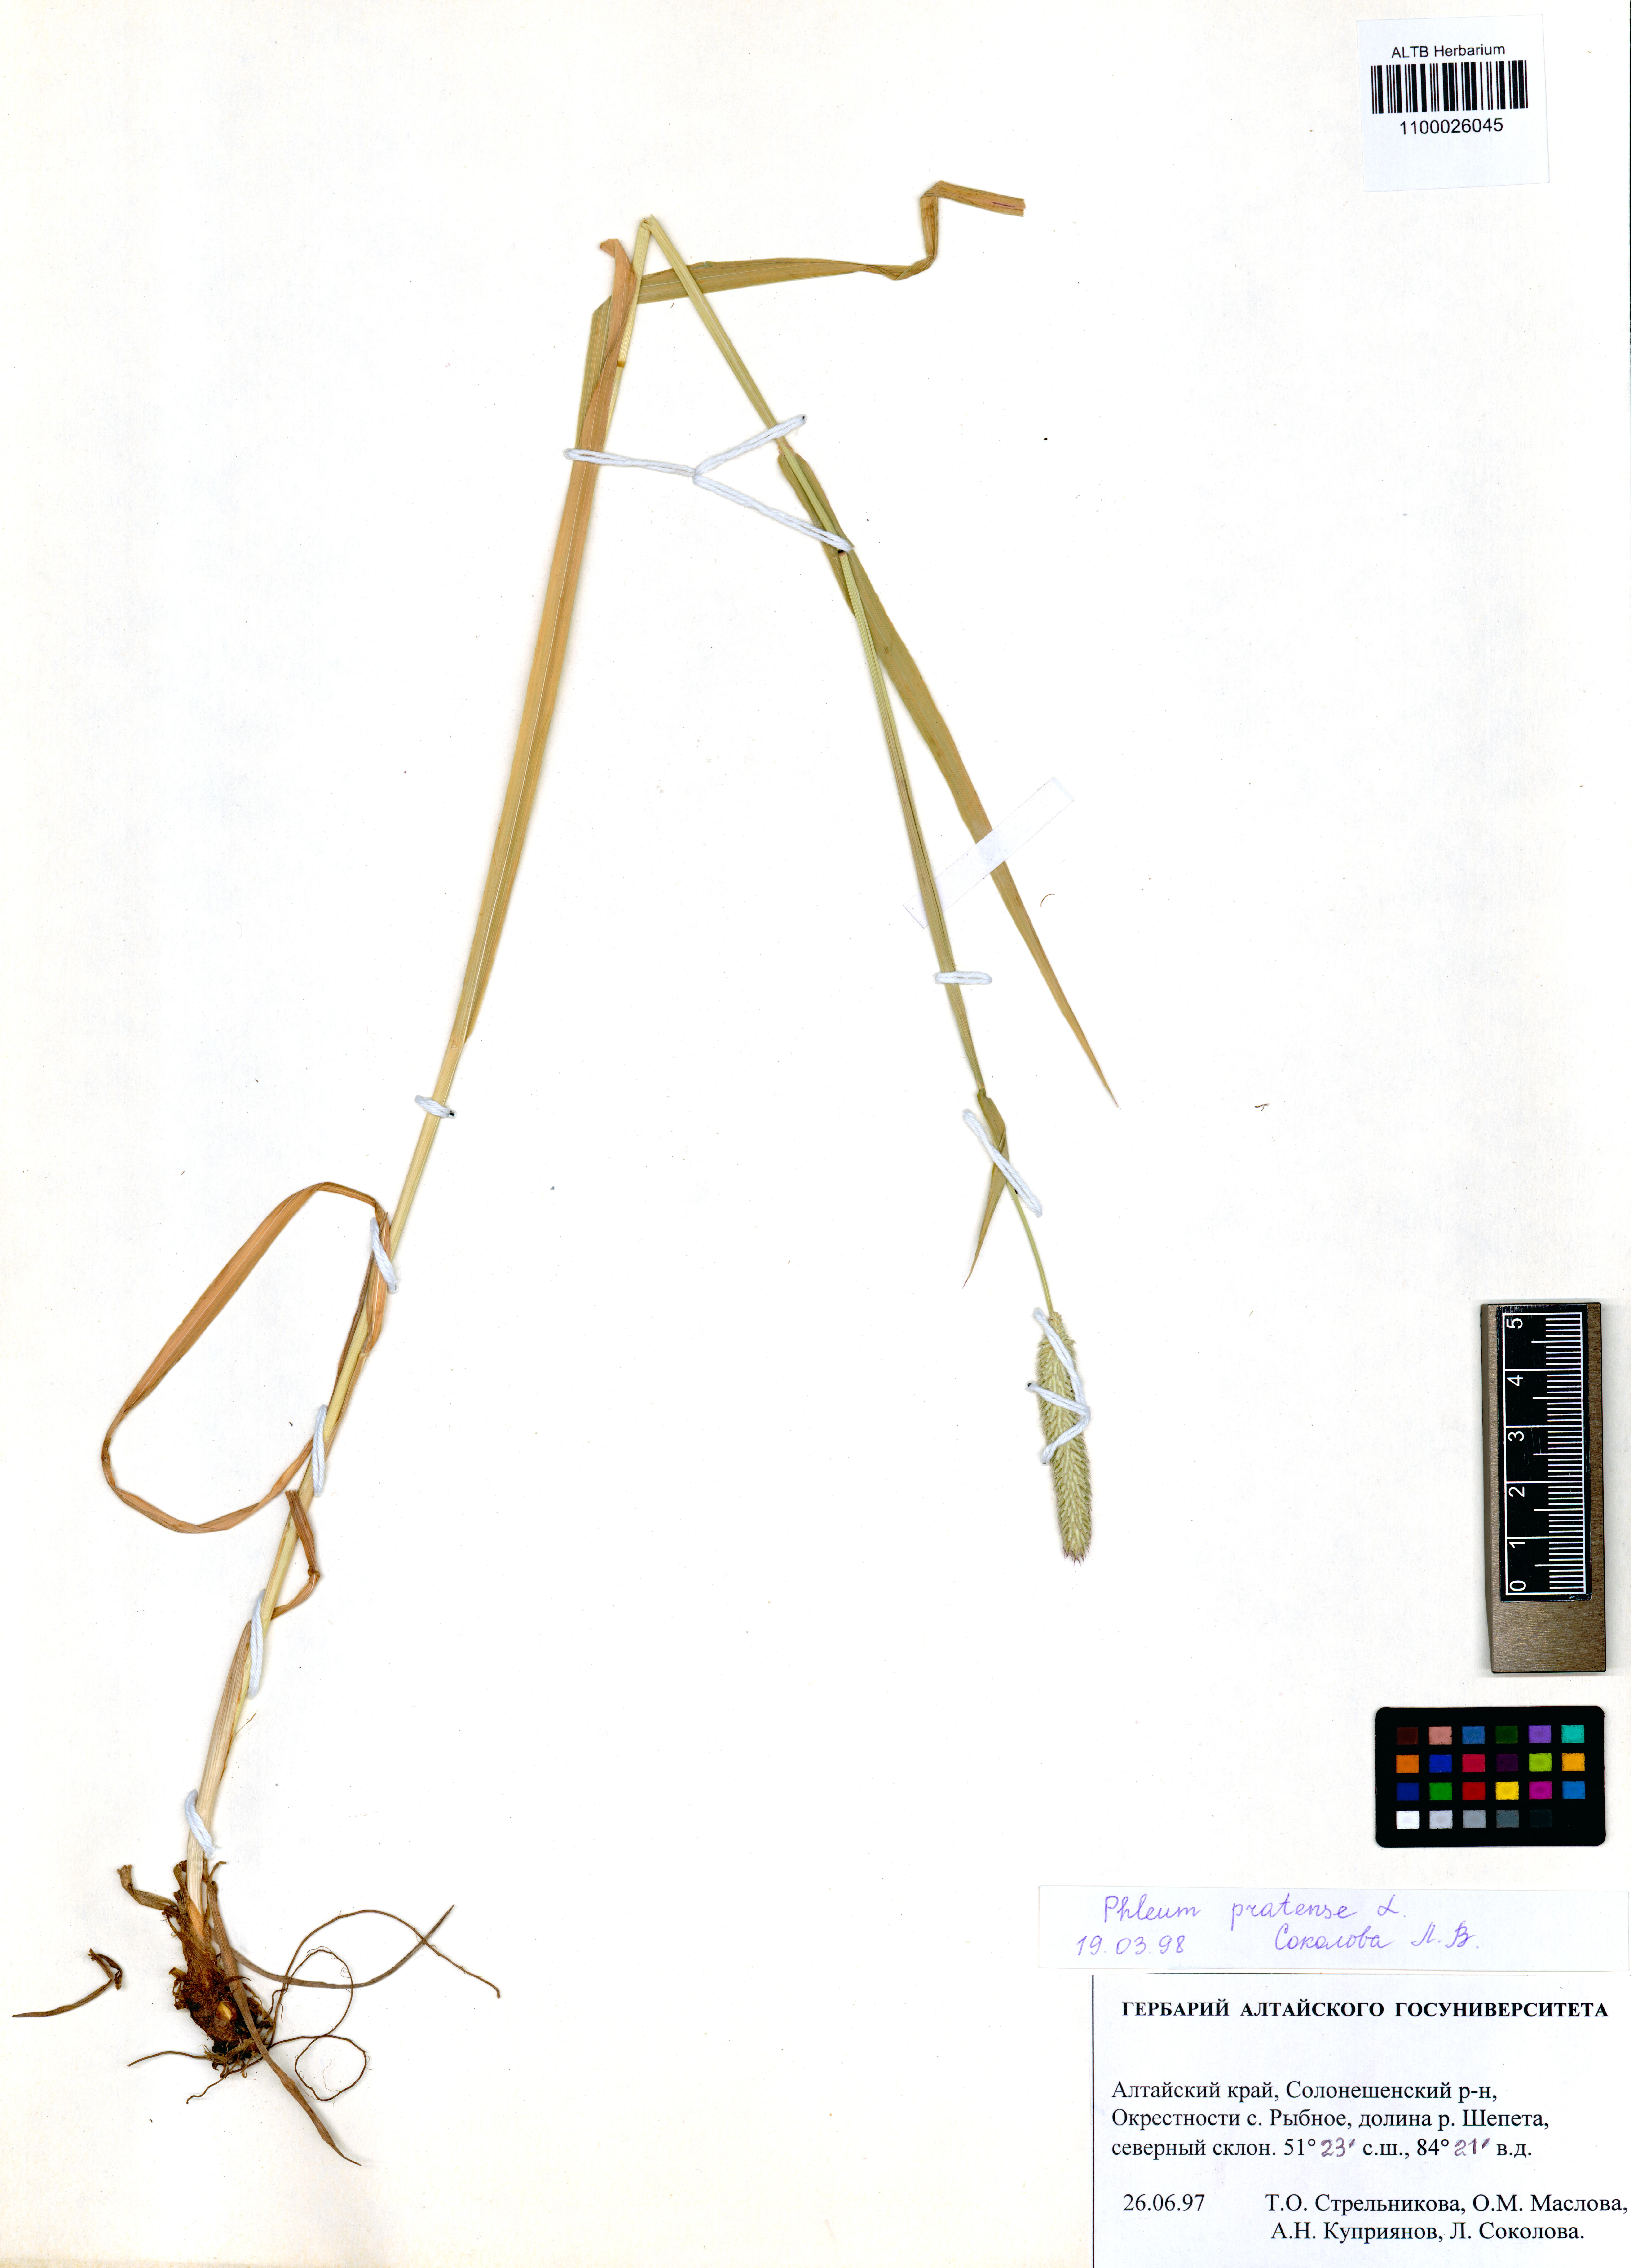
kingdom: Plantae
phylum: Tracheophyta
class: Liliopsida
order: Poales
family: Poaceae
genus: Phleum
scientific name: Phleum pratense
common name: Timothy grass
